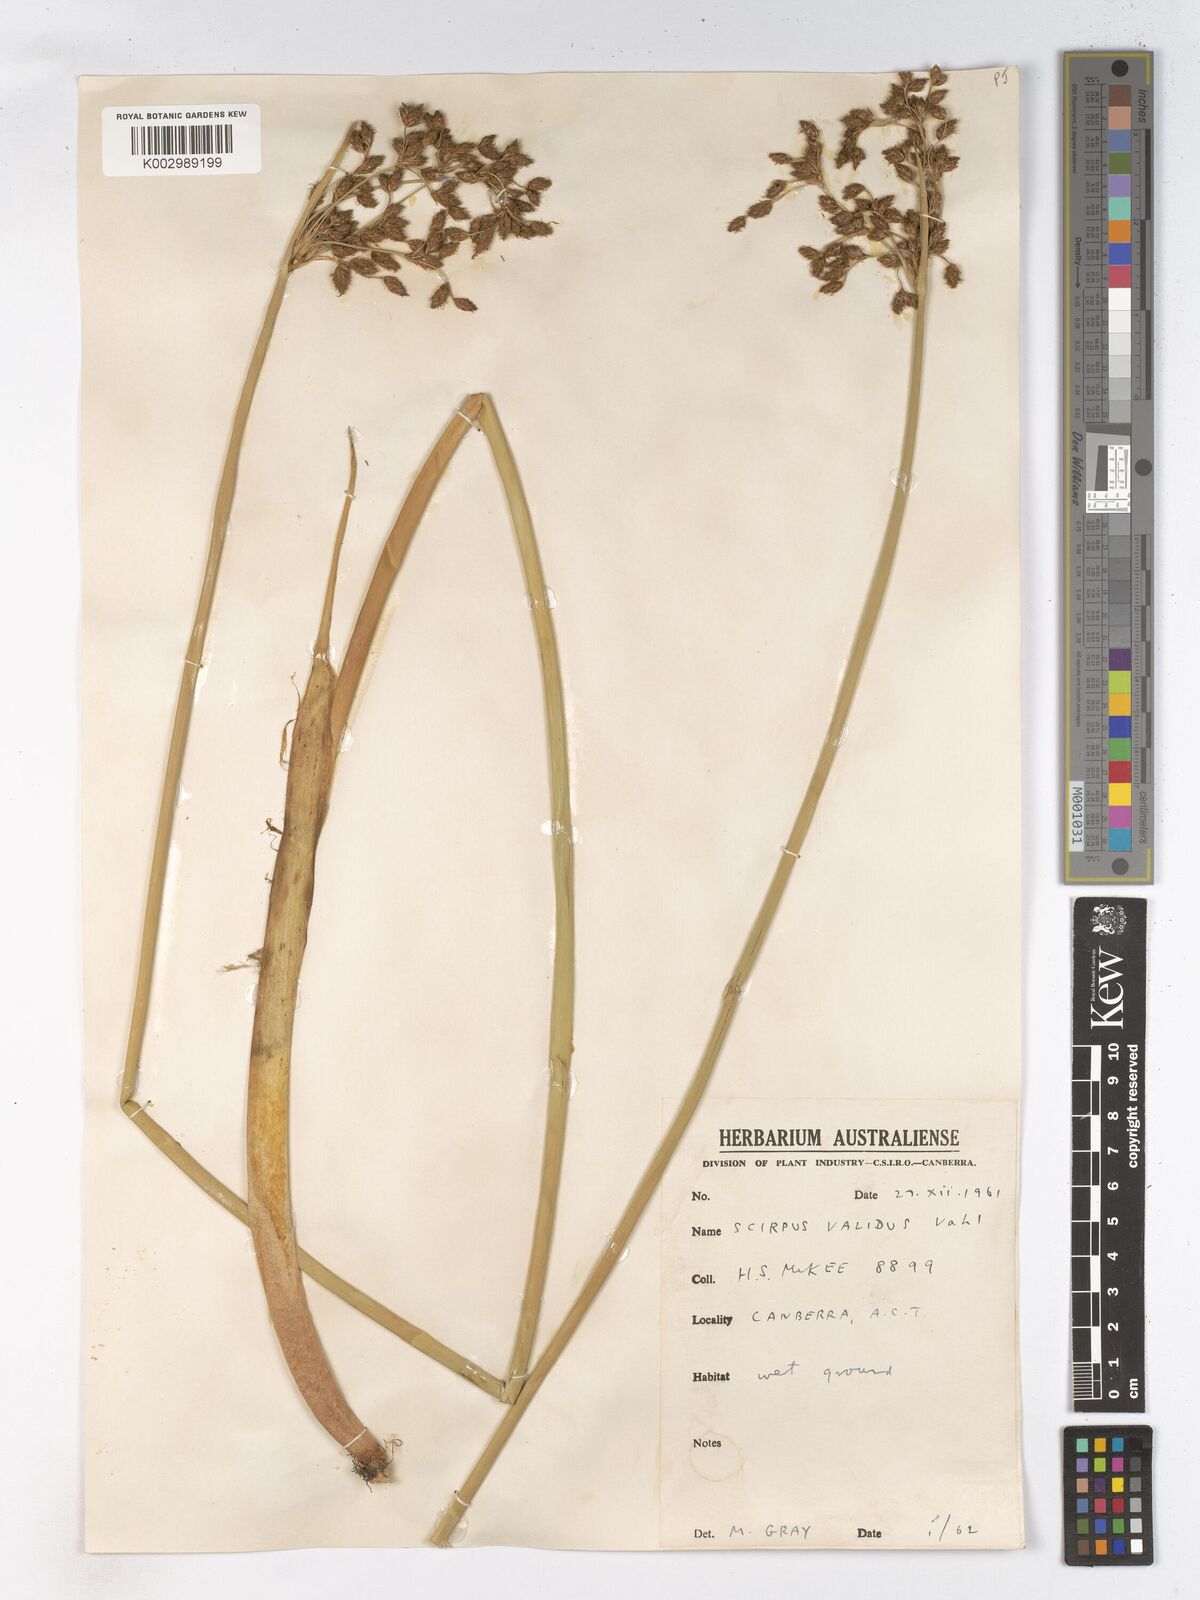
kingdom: Plantae
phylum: Tracheophyta
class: Liliopsida
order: Poales
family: Cyperaceae
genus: Schoenoplectus
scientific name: Schoenoplectus lacustris
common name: Common club-rush
